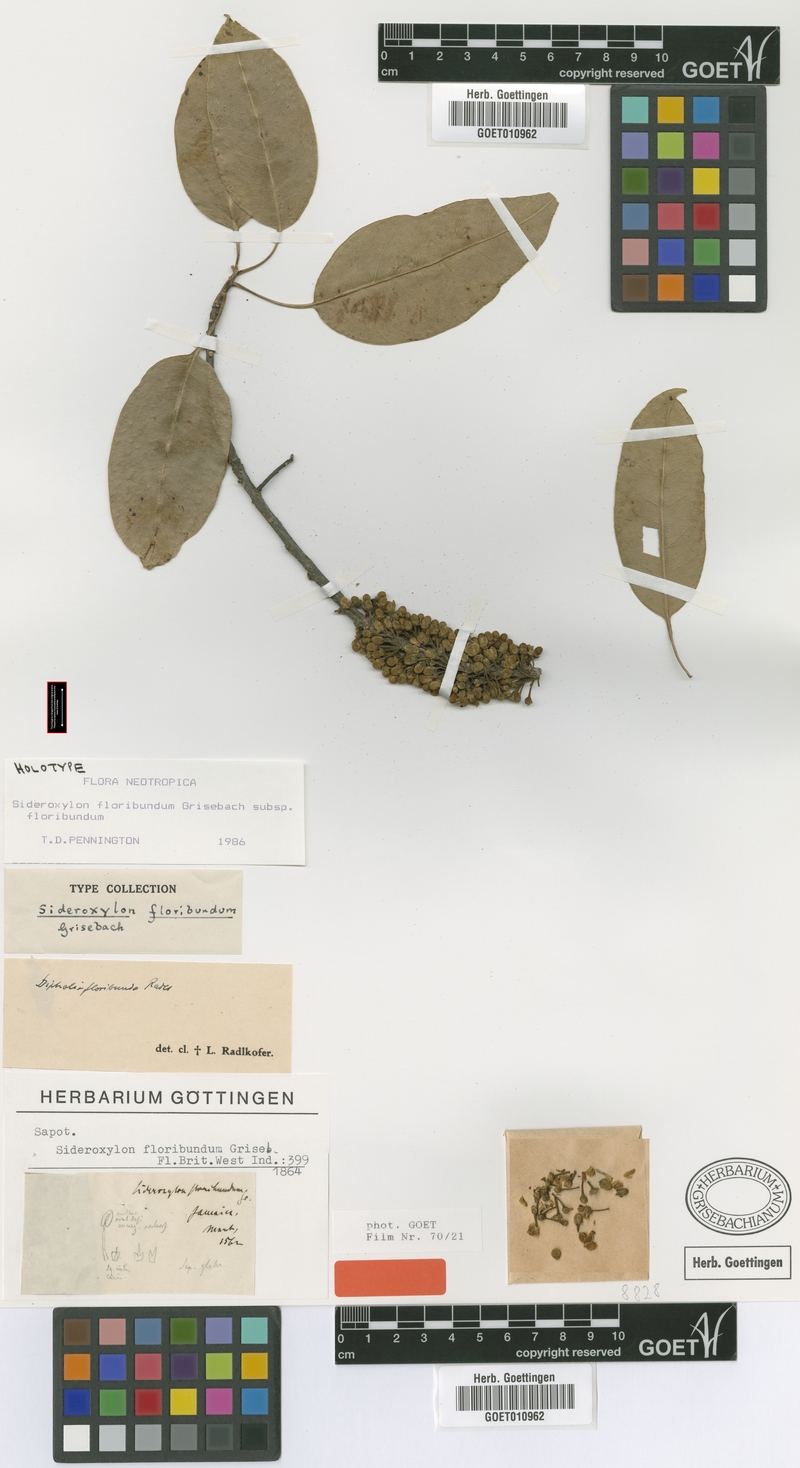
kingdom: Plantae
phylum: Tracheophyta
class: Magnoliopsida
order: Ericales
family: Sapotaceae
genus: Sideroxylon
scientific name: Sideroxylon floribundum
